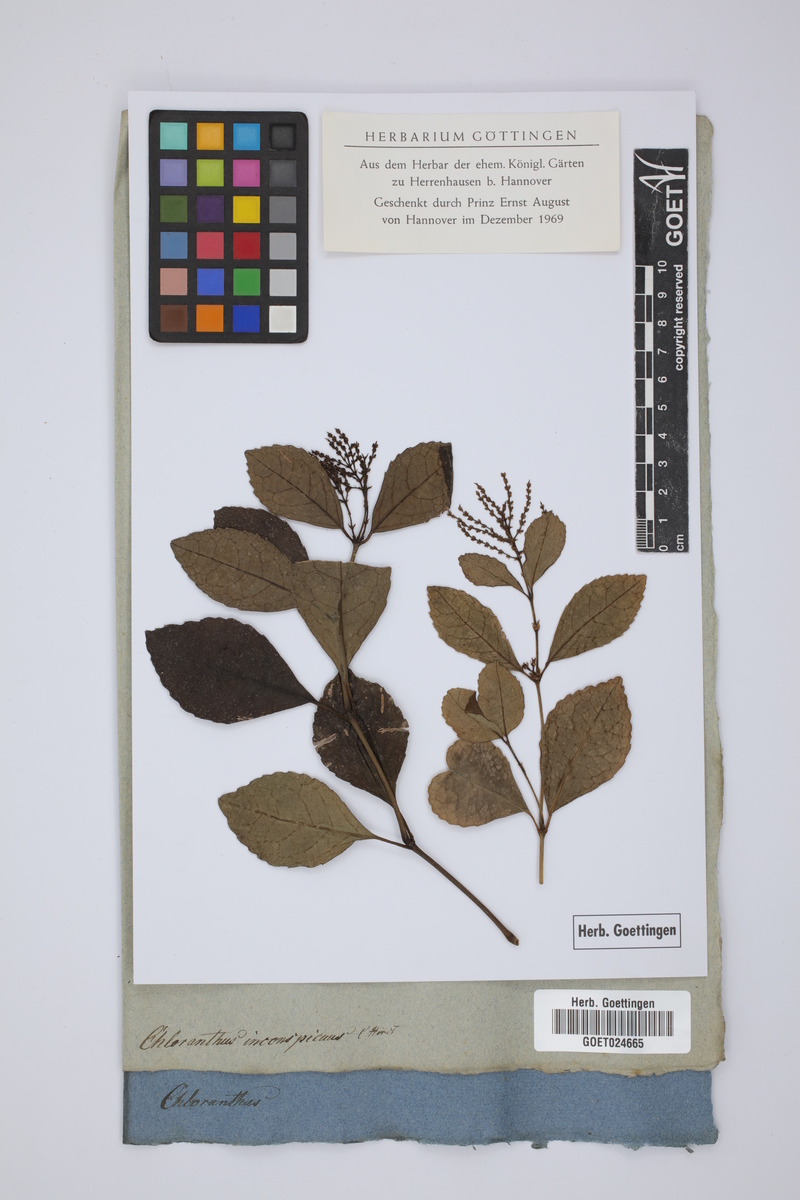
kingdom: Plantae
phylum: Tracheophyta
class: Magnoliopsida
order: Chloranthales
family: Chloranthaceae
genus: Chloranthus
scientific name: Chloranthus spicatus
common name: Chulantree
